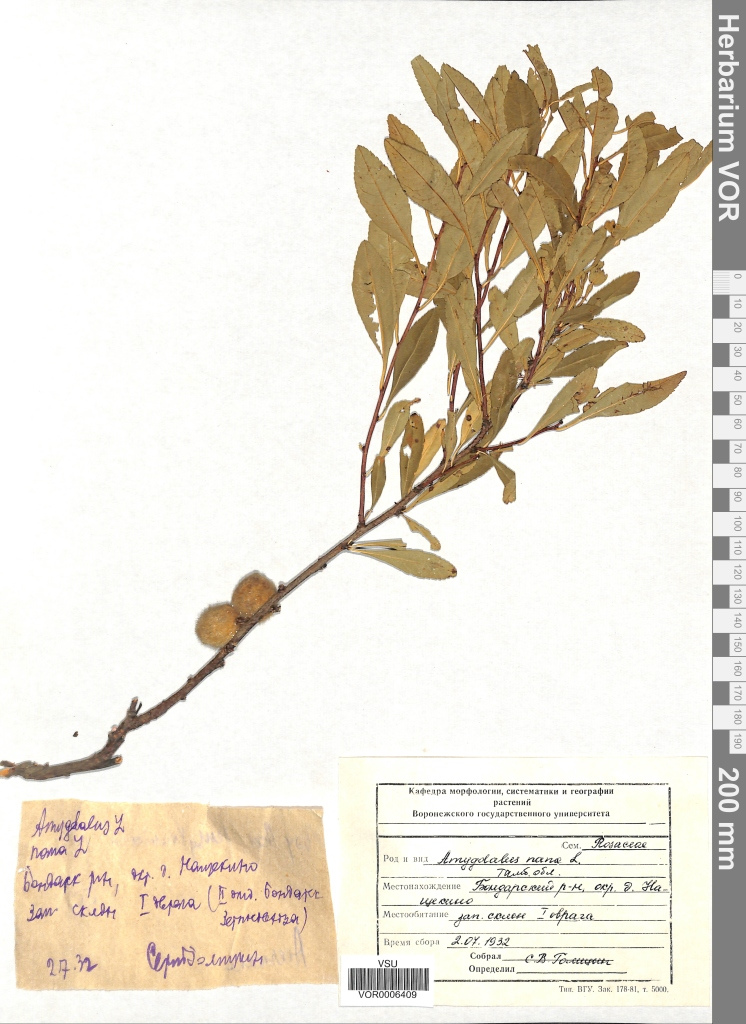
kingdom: Plantae
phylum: Tracheophyta
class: Magnoliopsida
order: Rosales
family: Rosaceae
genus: Prunus
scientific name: Prunus tenella
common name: Dwarf russian almond
